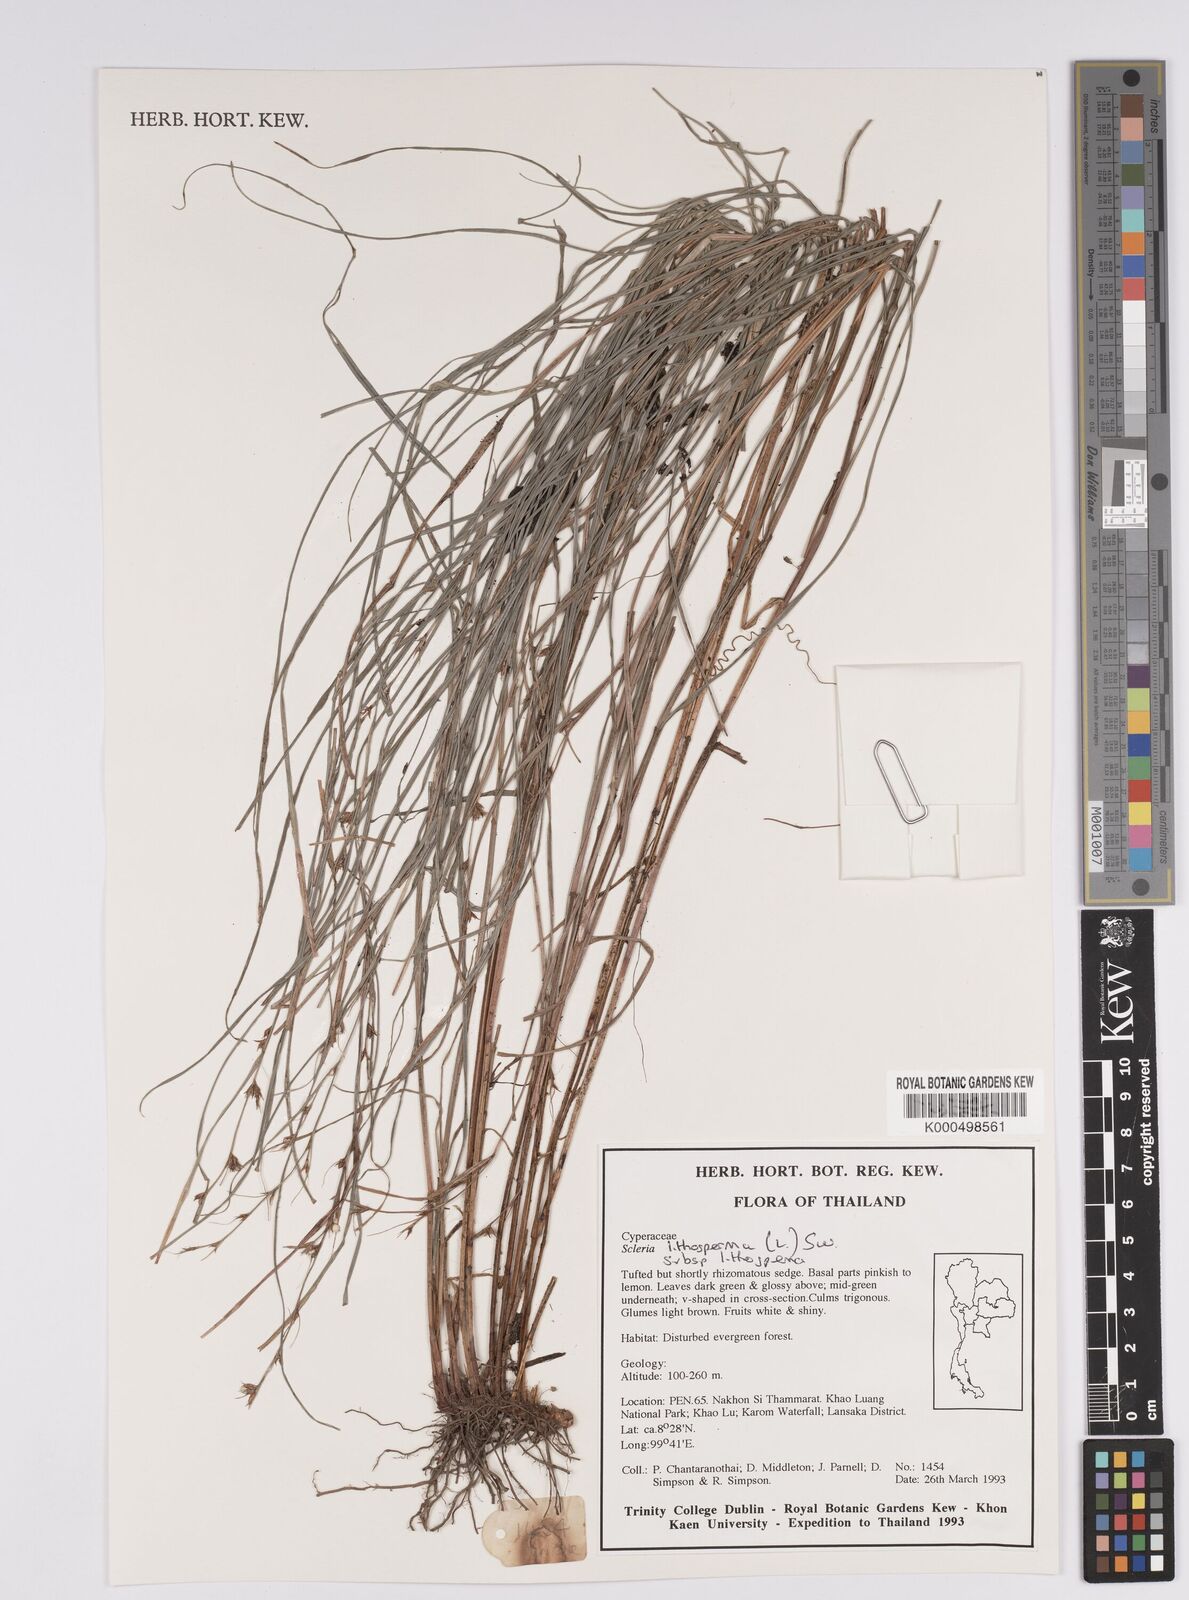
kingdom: Plantae
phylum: Tracheophyta
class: Liliopsida
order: Poales
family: Cyperaceae
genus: Scleria
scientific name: Scleria lithosperma
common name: Florida keys nut-rush
